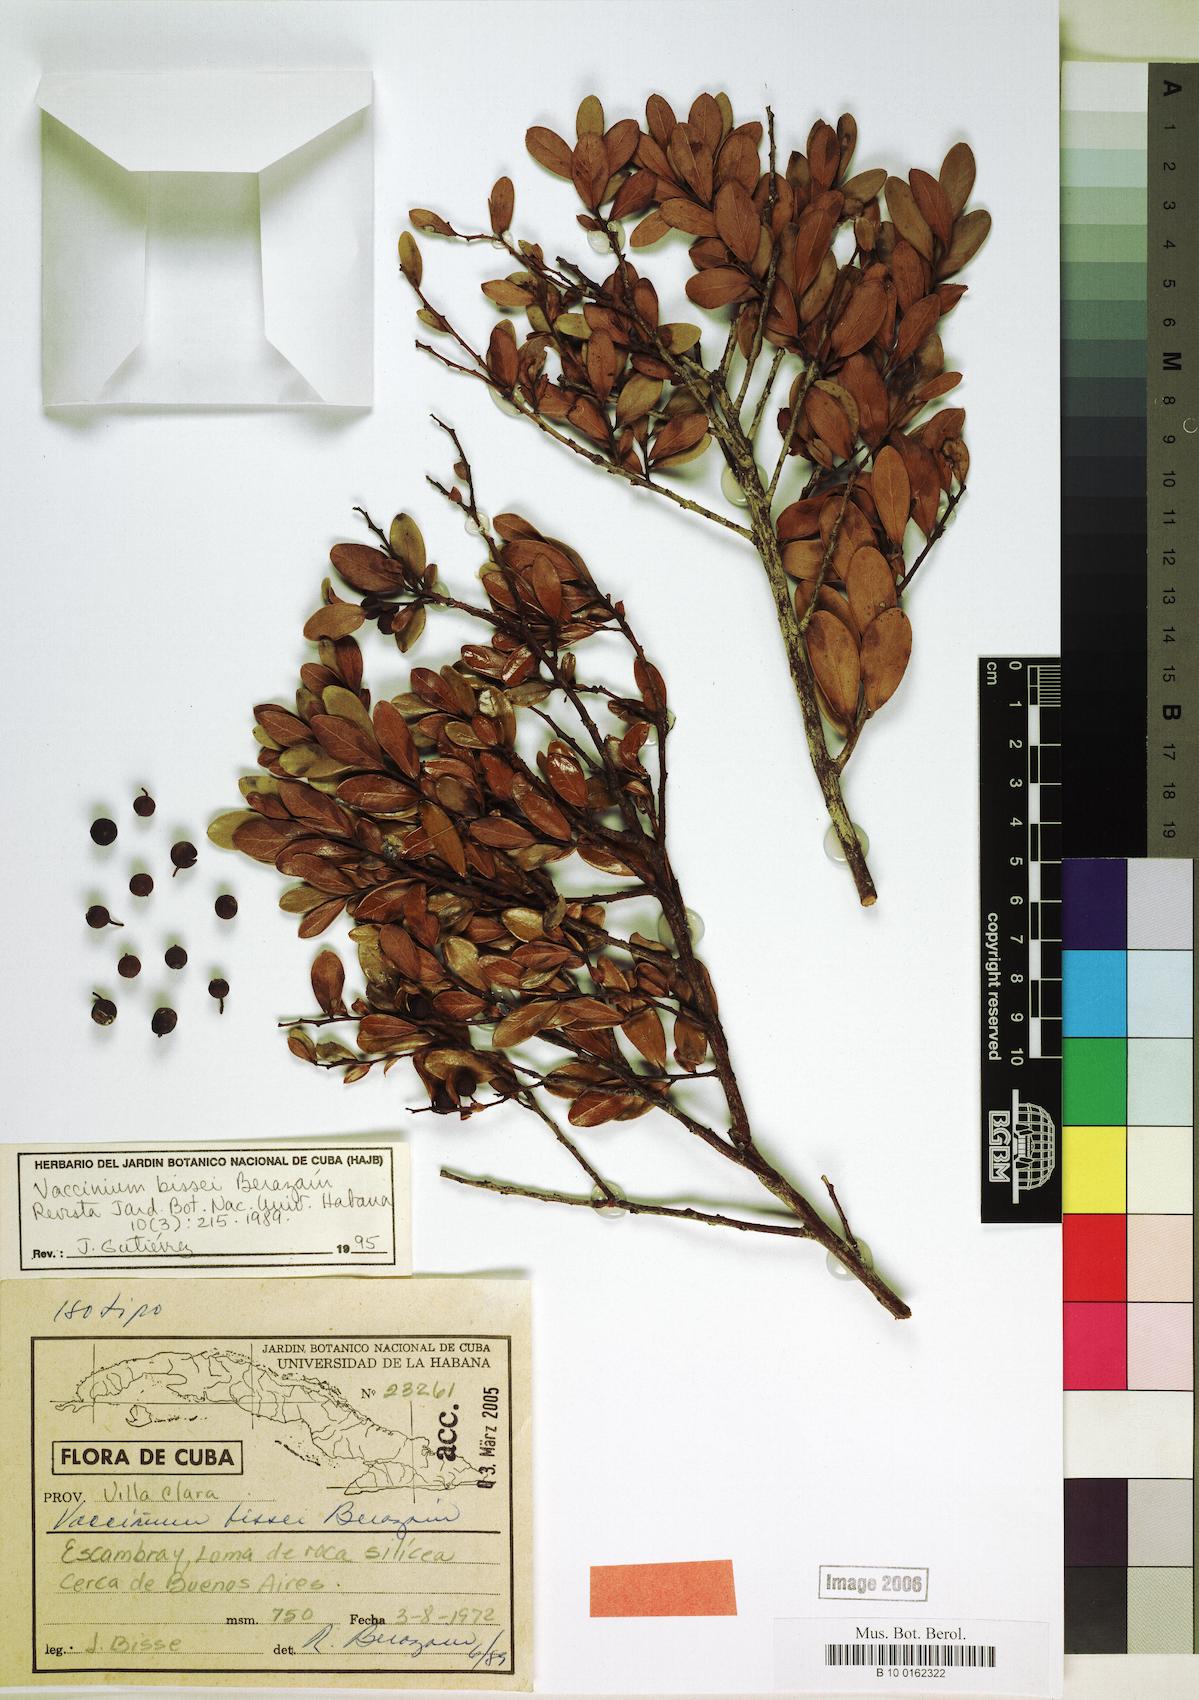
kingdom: Plantae
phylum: Tracheophyta
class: Magnoliopsida
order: Ericales
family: Ericaceae
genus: Vaccinium
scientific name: Vaccinium bissei
